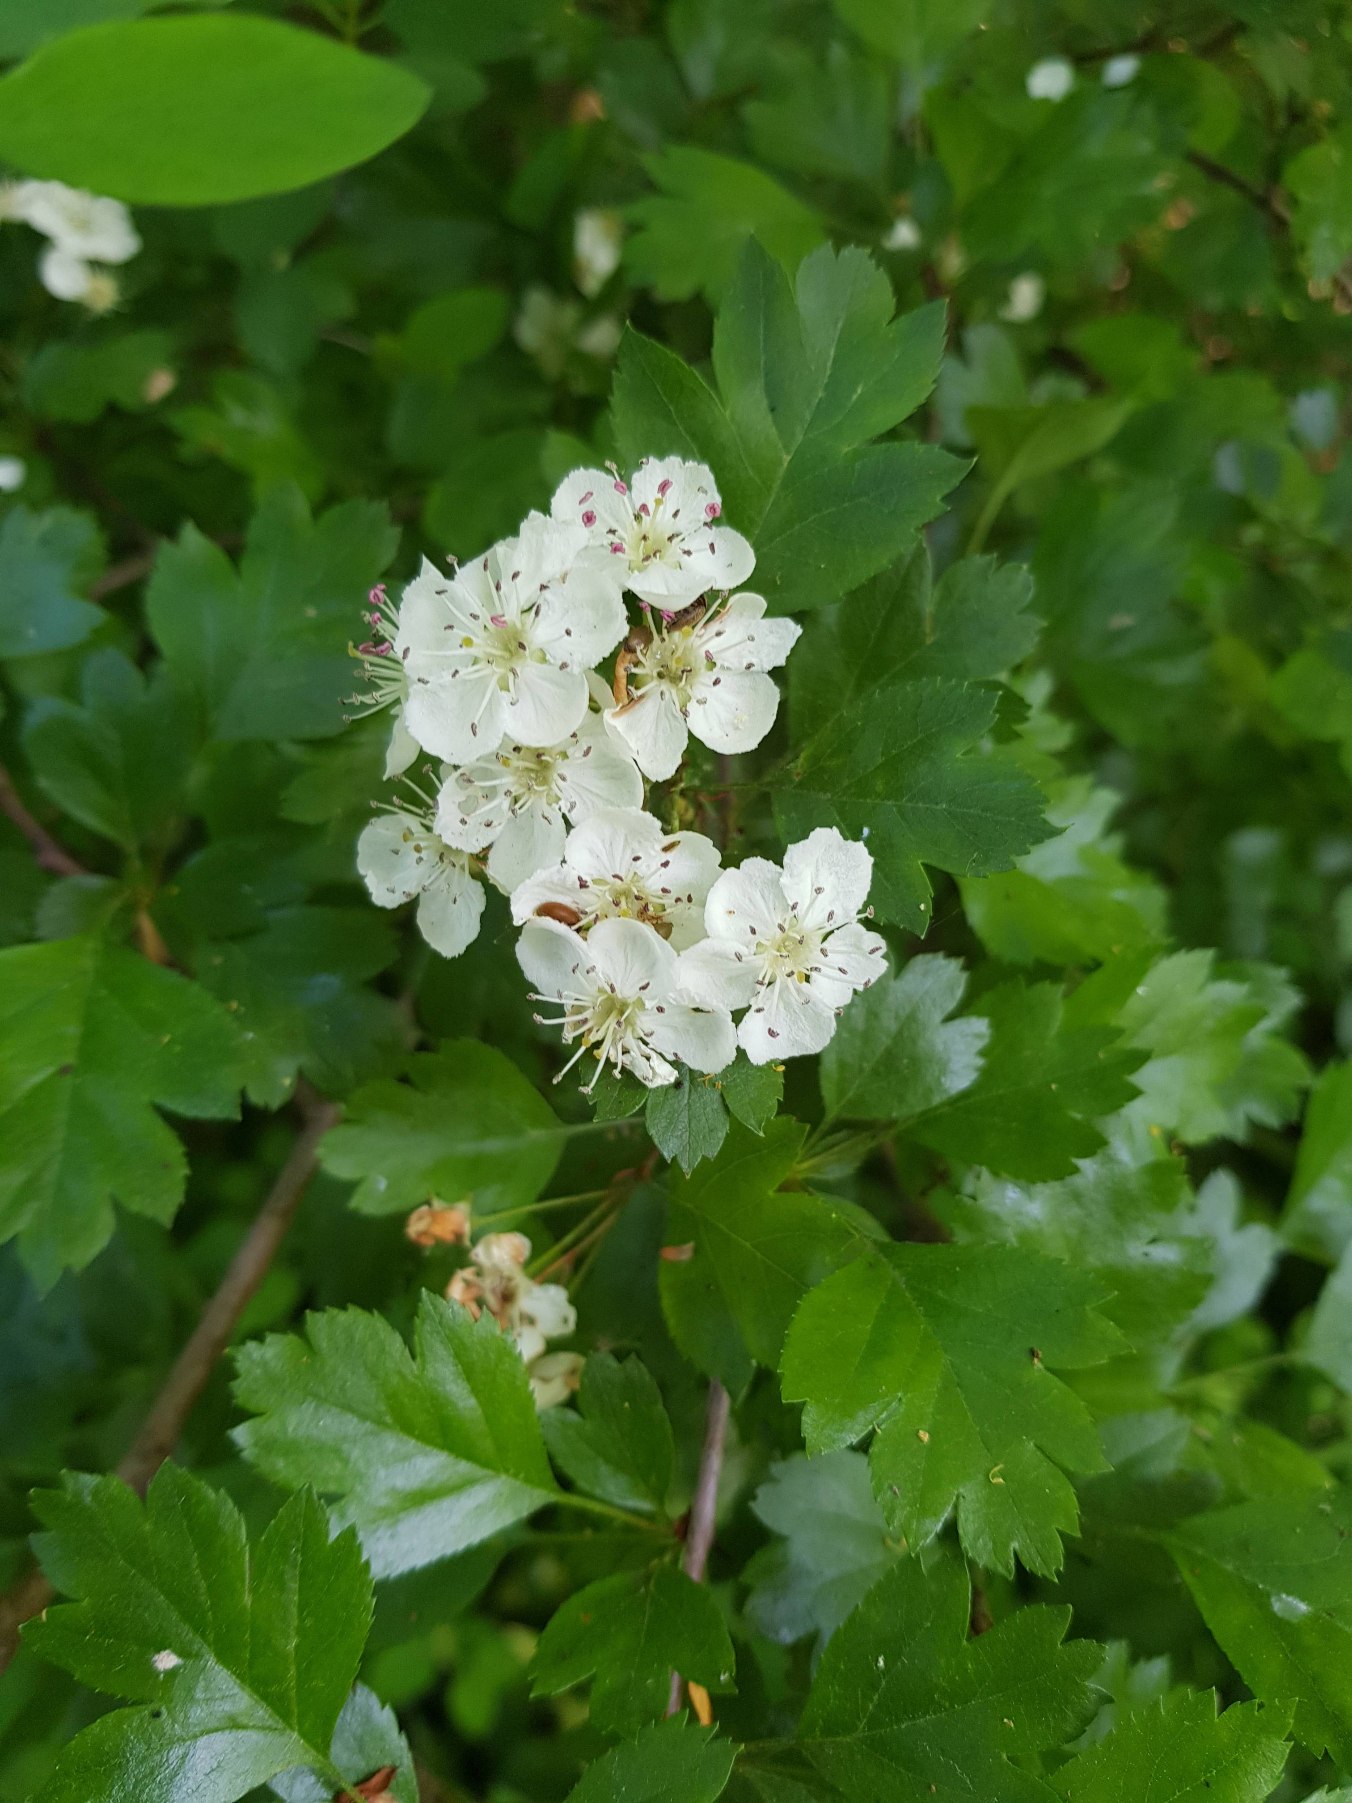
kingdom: Plantae
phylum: Tracheophyta
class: Magnoliopsida
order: Rosales
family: Rosaceae
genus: Crataegus
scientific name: Crataegus laevigata
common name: Almindelig hvidtjørn
